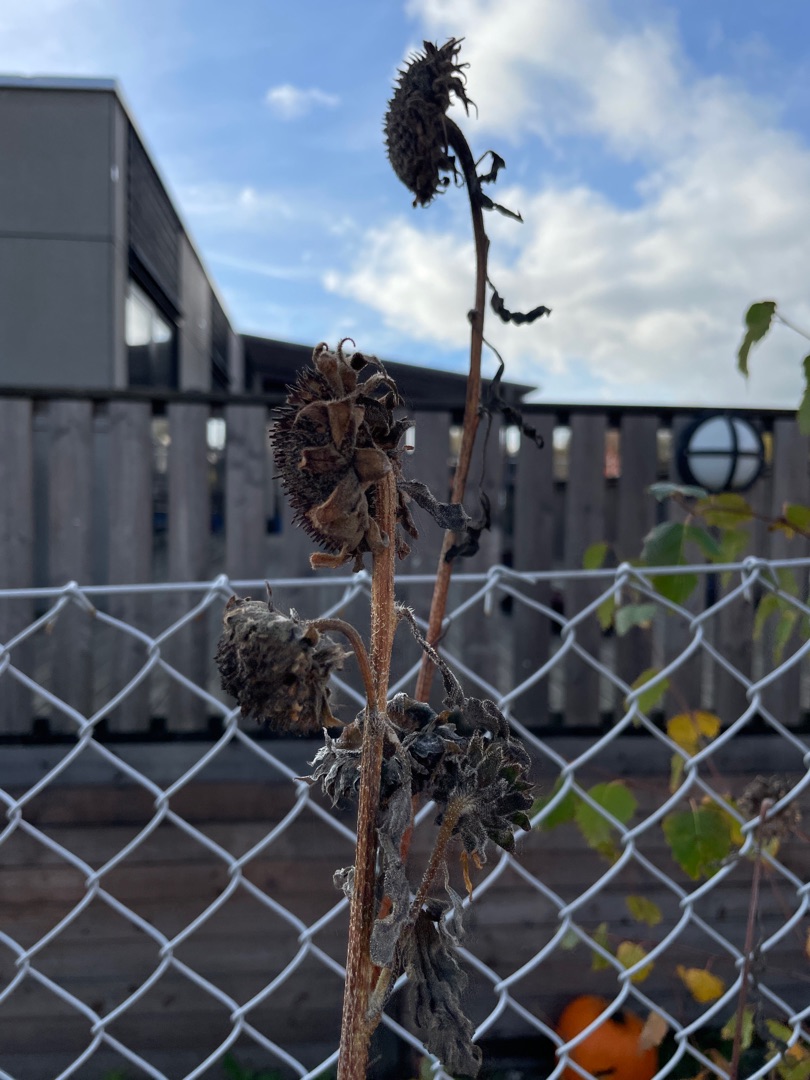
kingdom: Plantae
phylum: Tracheophyta
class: Magnoliopsida
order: Asterales
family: Asteraceae
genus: Helianthus
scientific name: Helianthus annuus
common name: Solsikke
